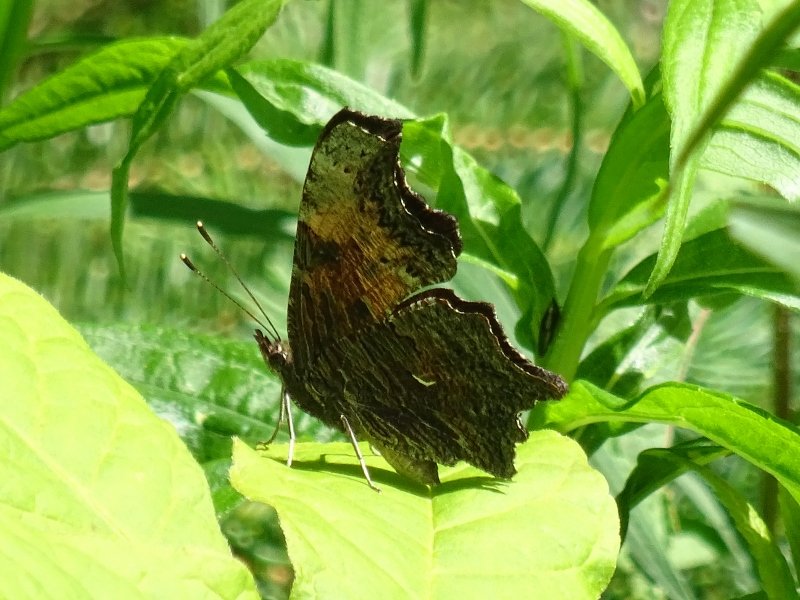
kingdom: Animalia
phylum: Arthropoda
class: Insecta
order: Lepidoptera
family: Nymphalidae
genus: Polygonia
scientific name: Polygonia progne
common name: Gray Comma
